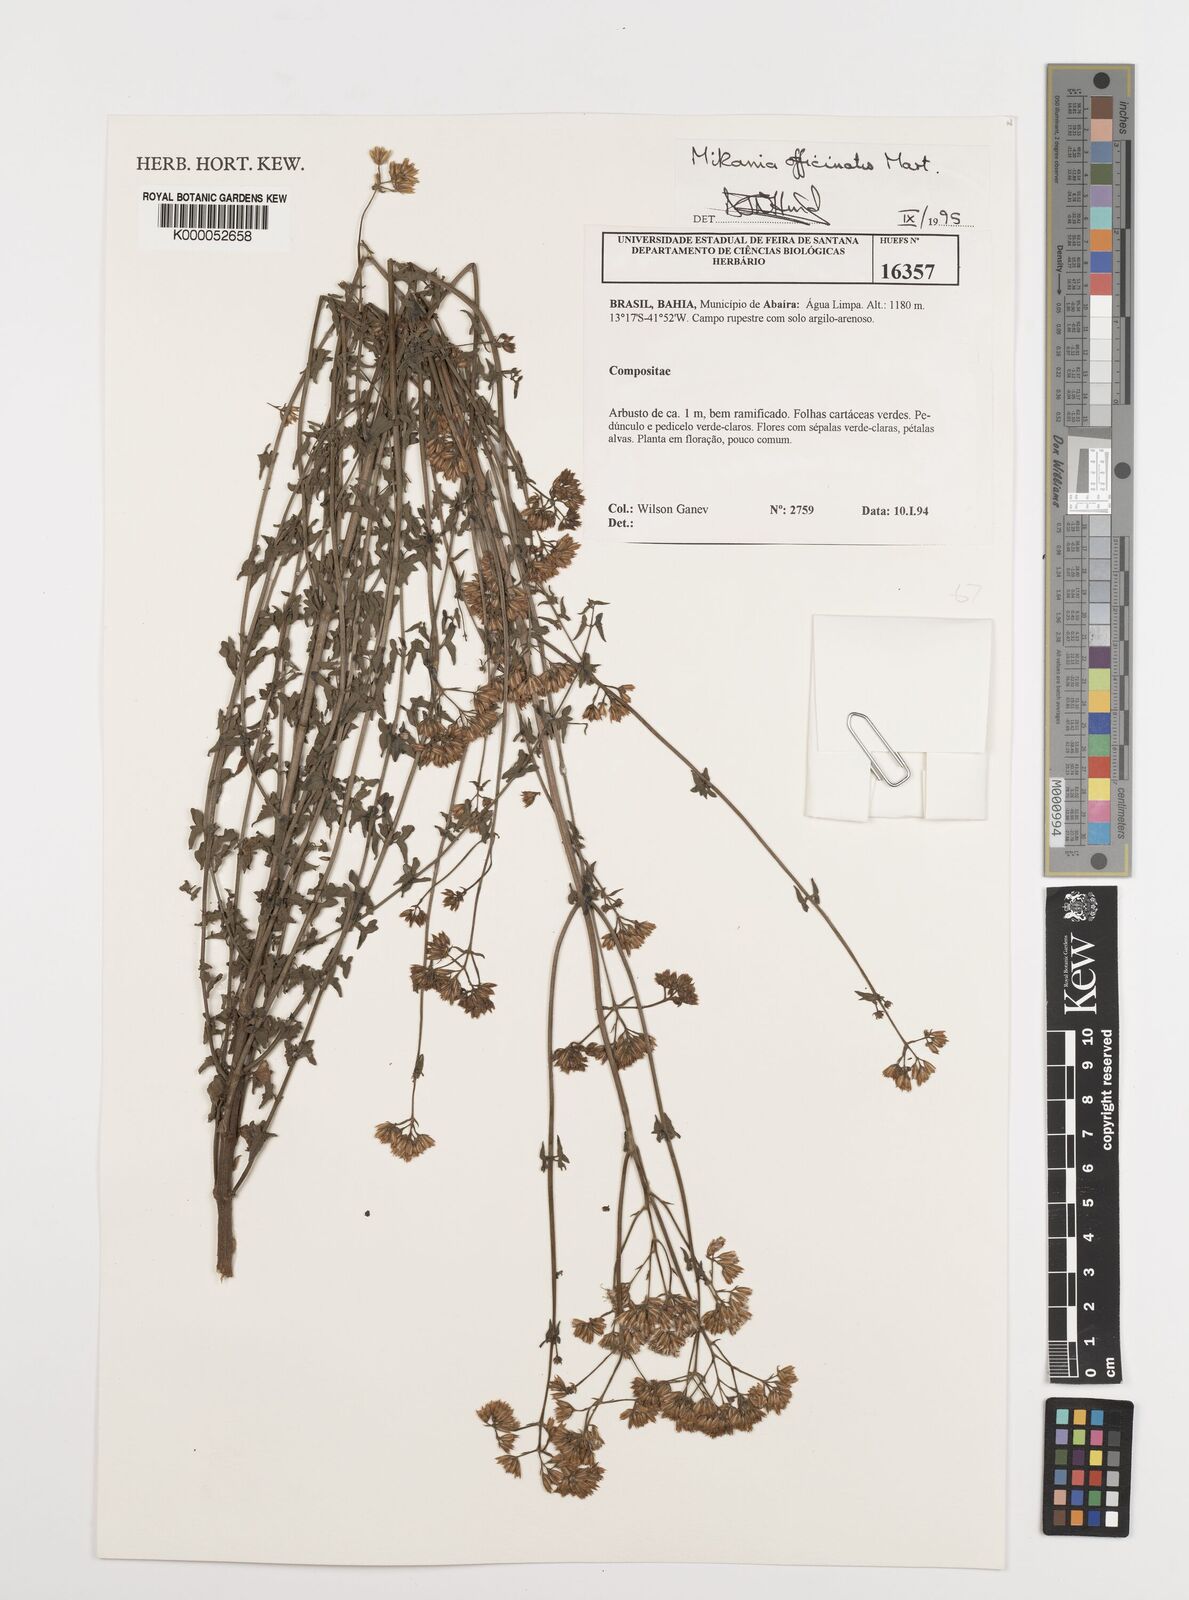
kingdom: Plantae
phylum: Tracheophyta
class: Magnoliopsida
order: Asterales
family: Asteraceae
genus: Mikania
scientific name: Mikania officinalis
